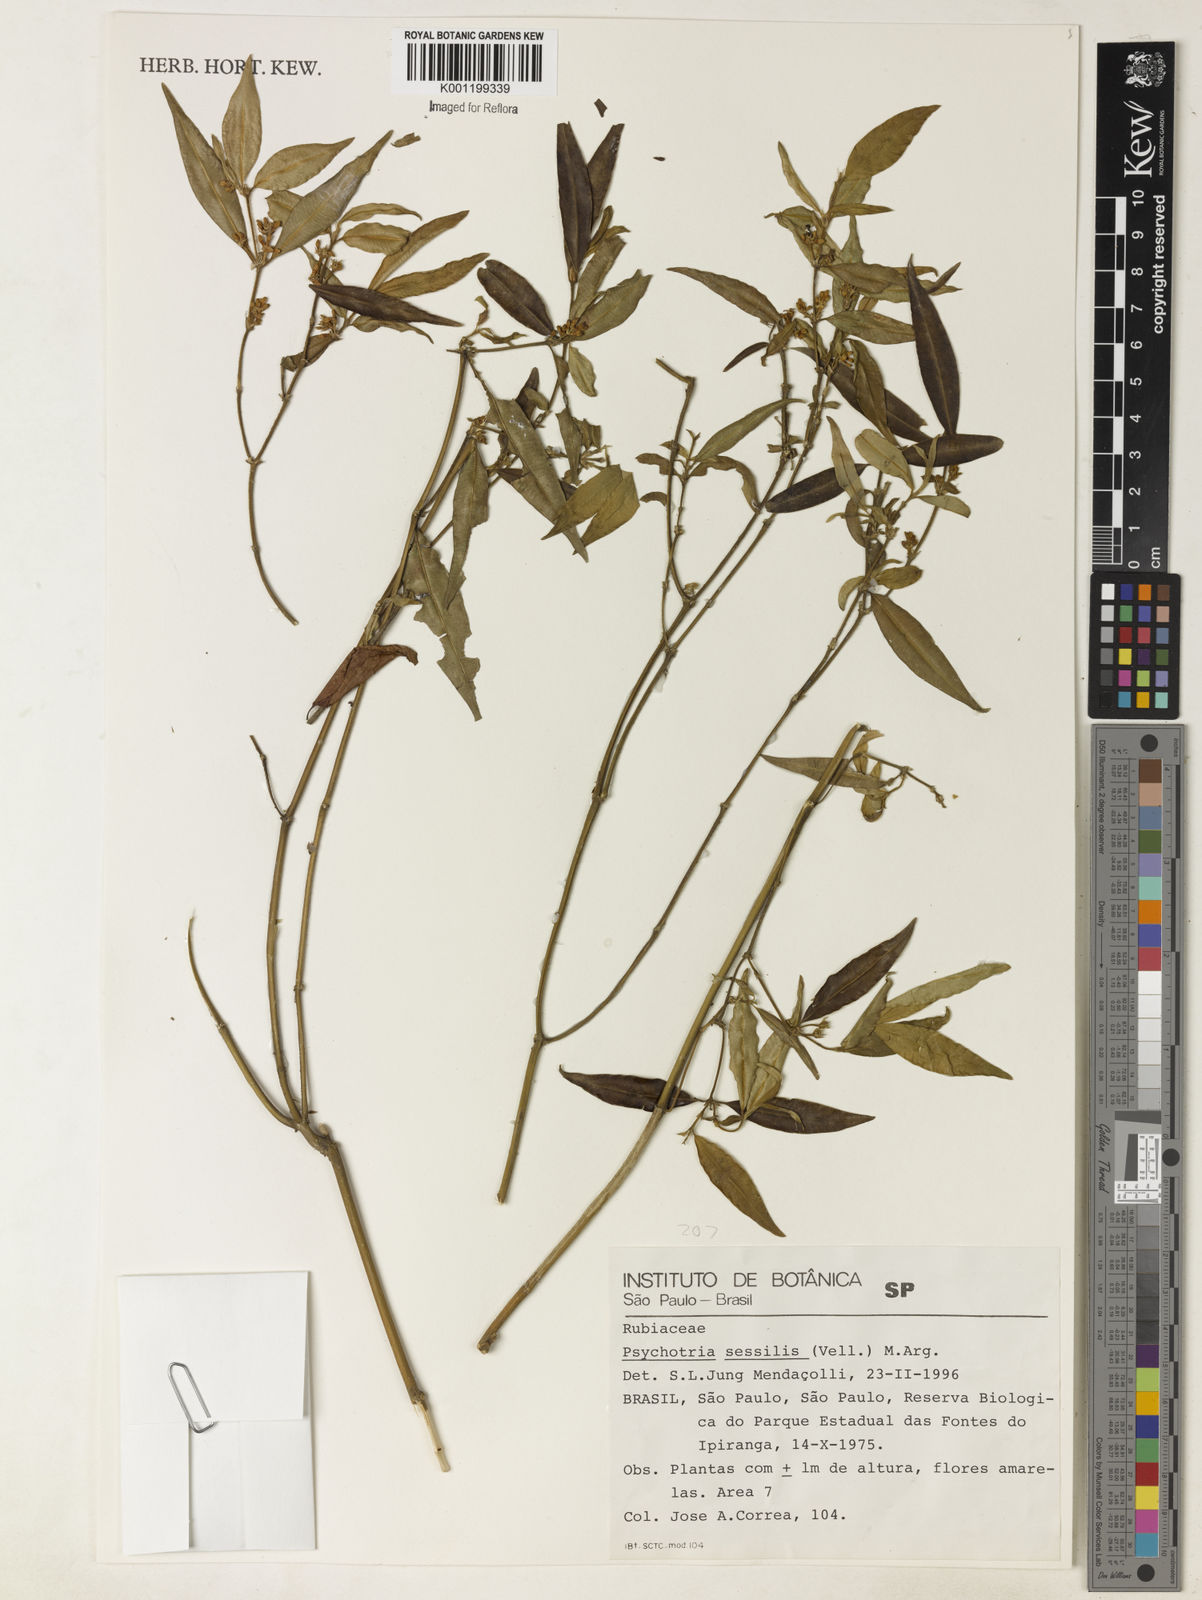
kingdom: Plantae
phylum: Tracheophyta
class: Magnoliopsida
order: Gentianales
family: Rubiaceae
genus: Rudgea
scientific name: Rudgea sessilis
